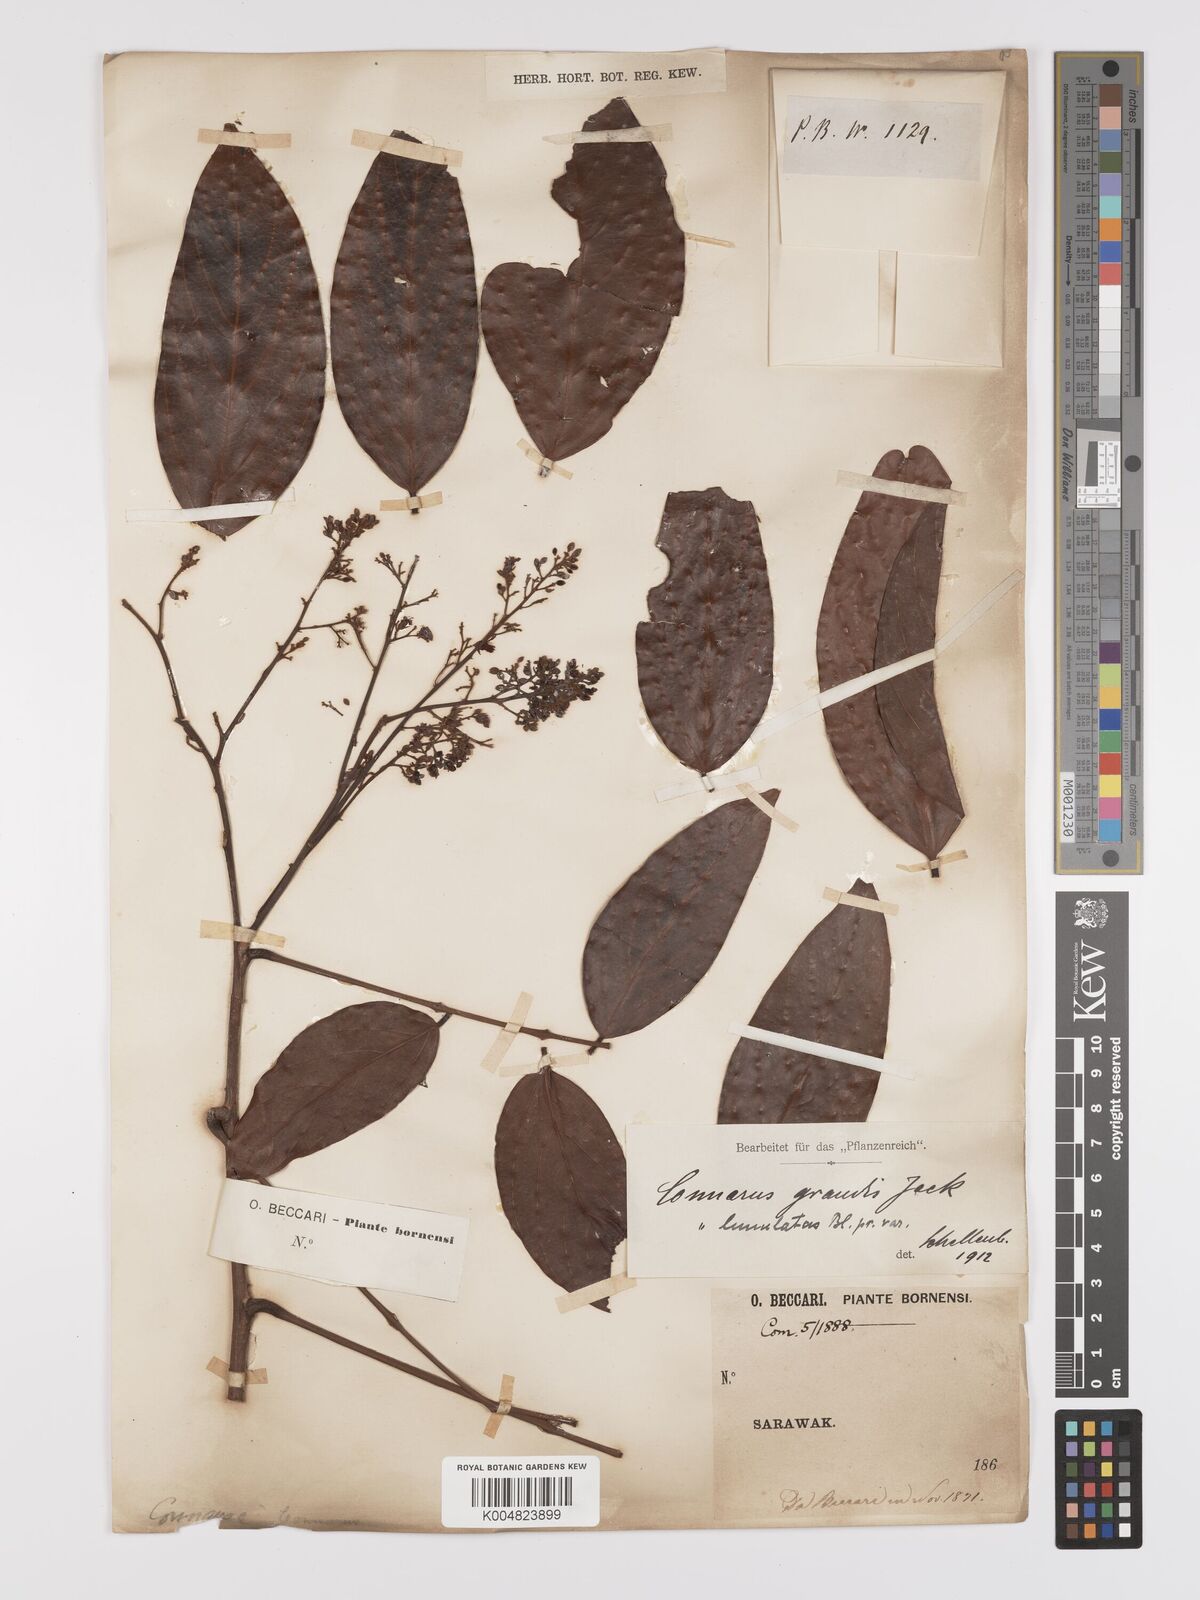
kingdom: Plantae
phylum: Tracheophyta
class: Magnoliopsida
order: Oxalidales
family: Connaraceae
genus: Connarus
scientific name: Connarus grandis
